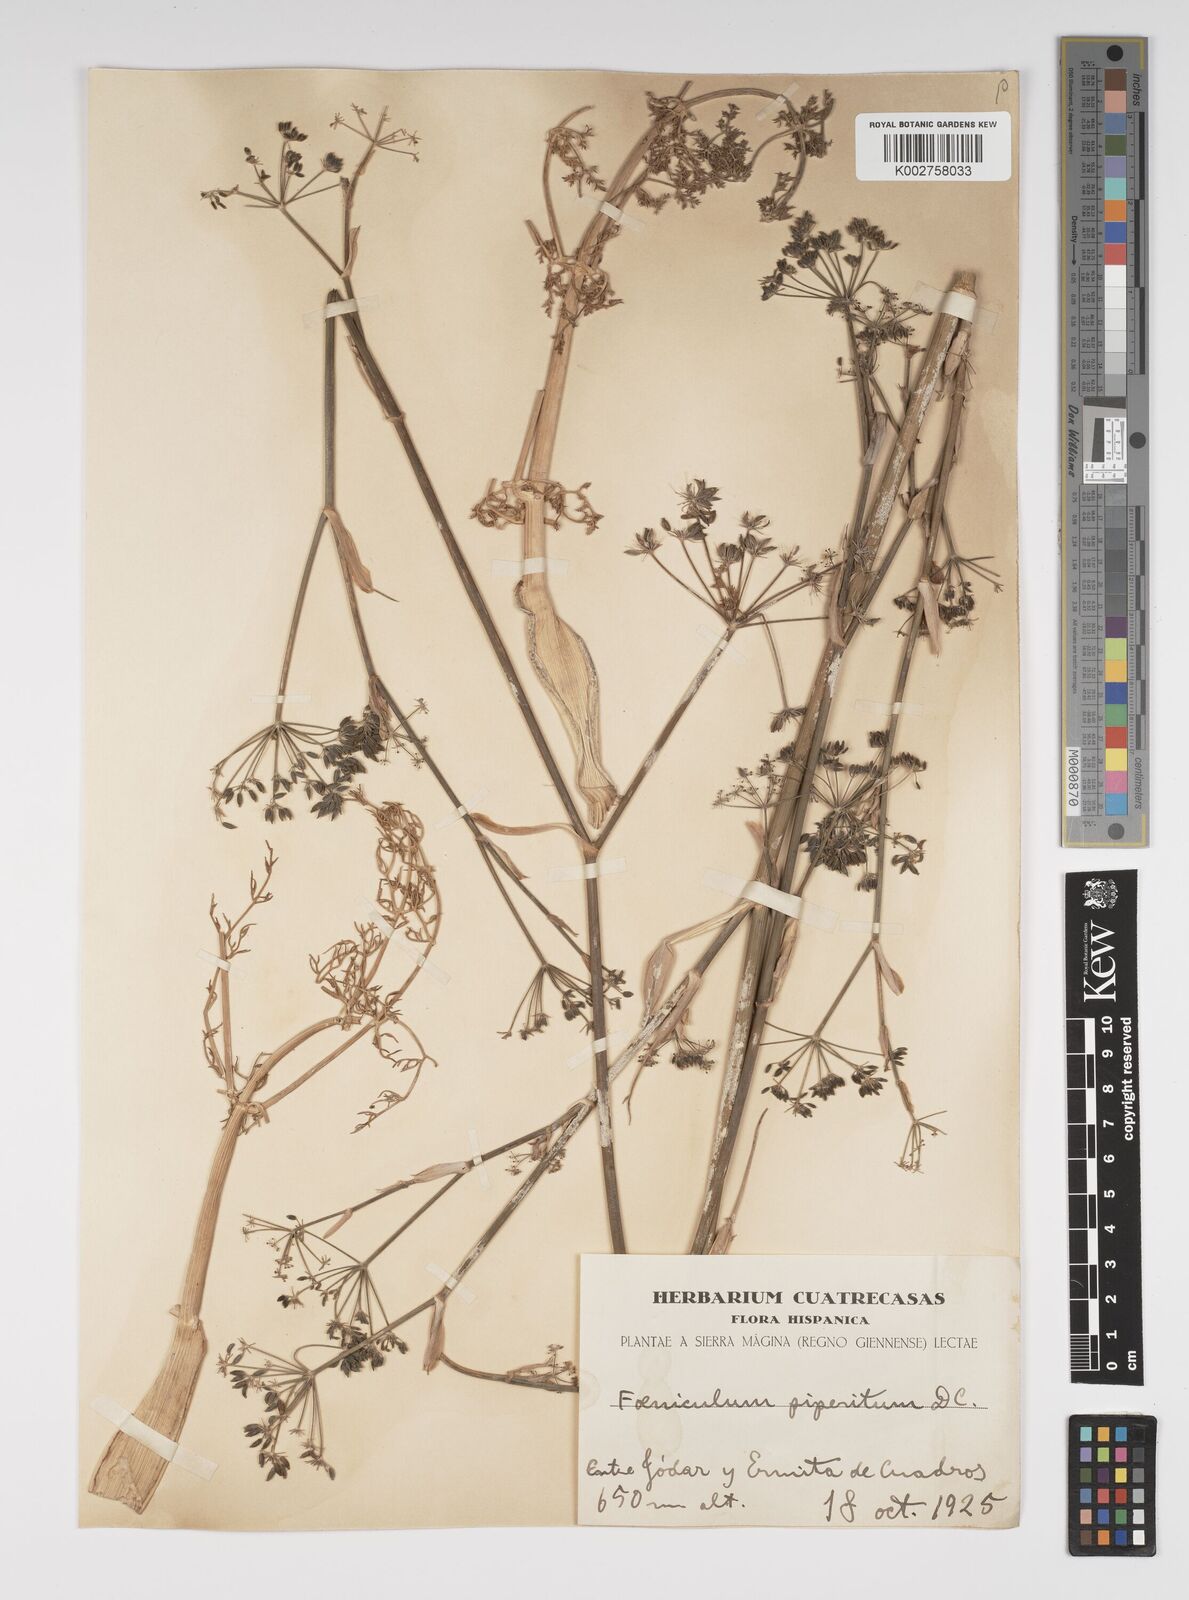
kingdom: Plantae
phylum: Tracheophyta
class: Magnoliopsida
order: Apiales
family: Apiaceae
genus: Foeniculum
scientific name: Foeniculum vulgare
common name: Fennel
